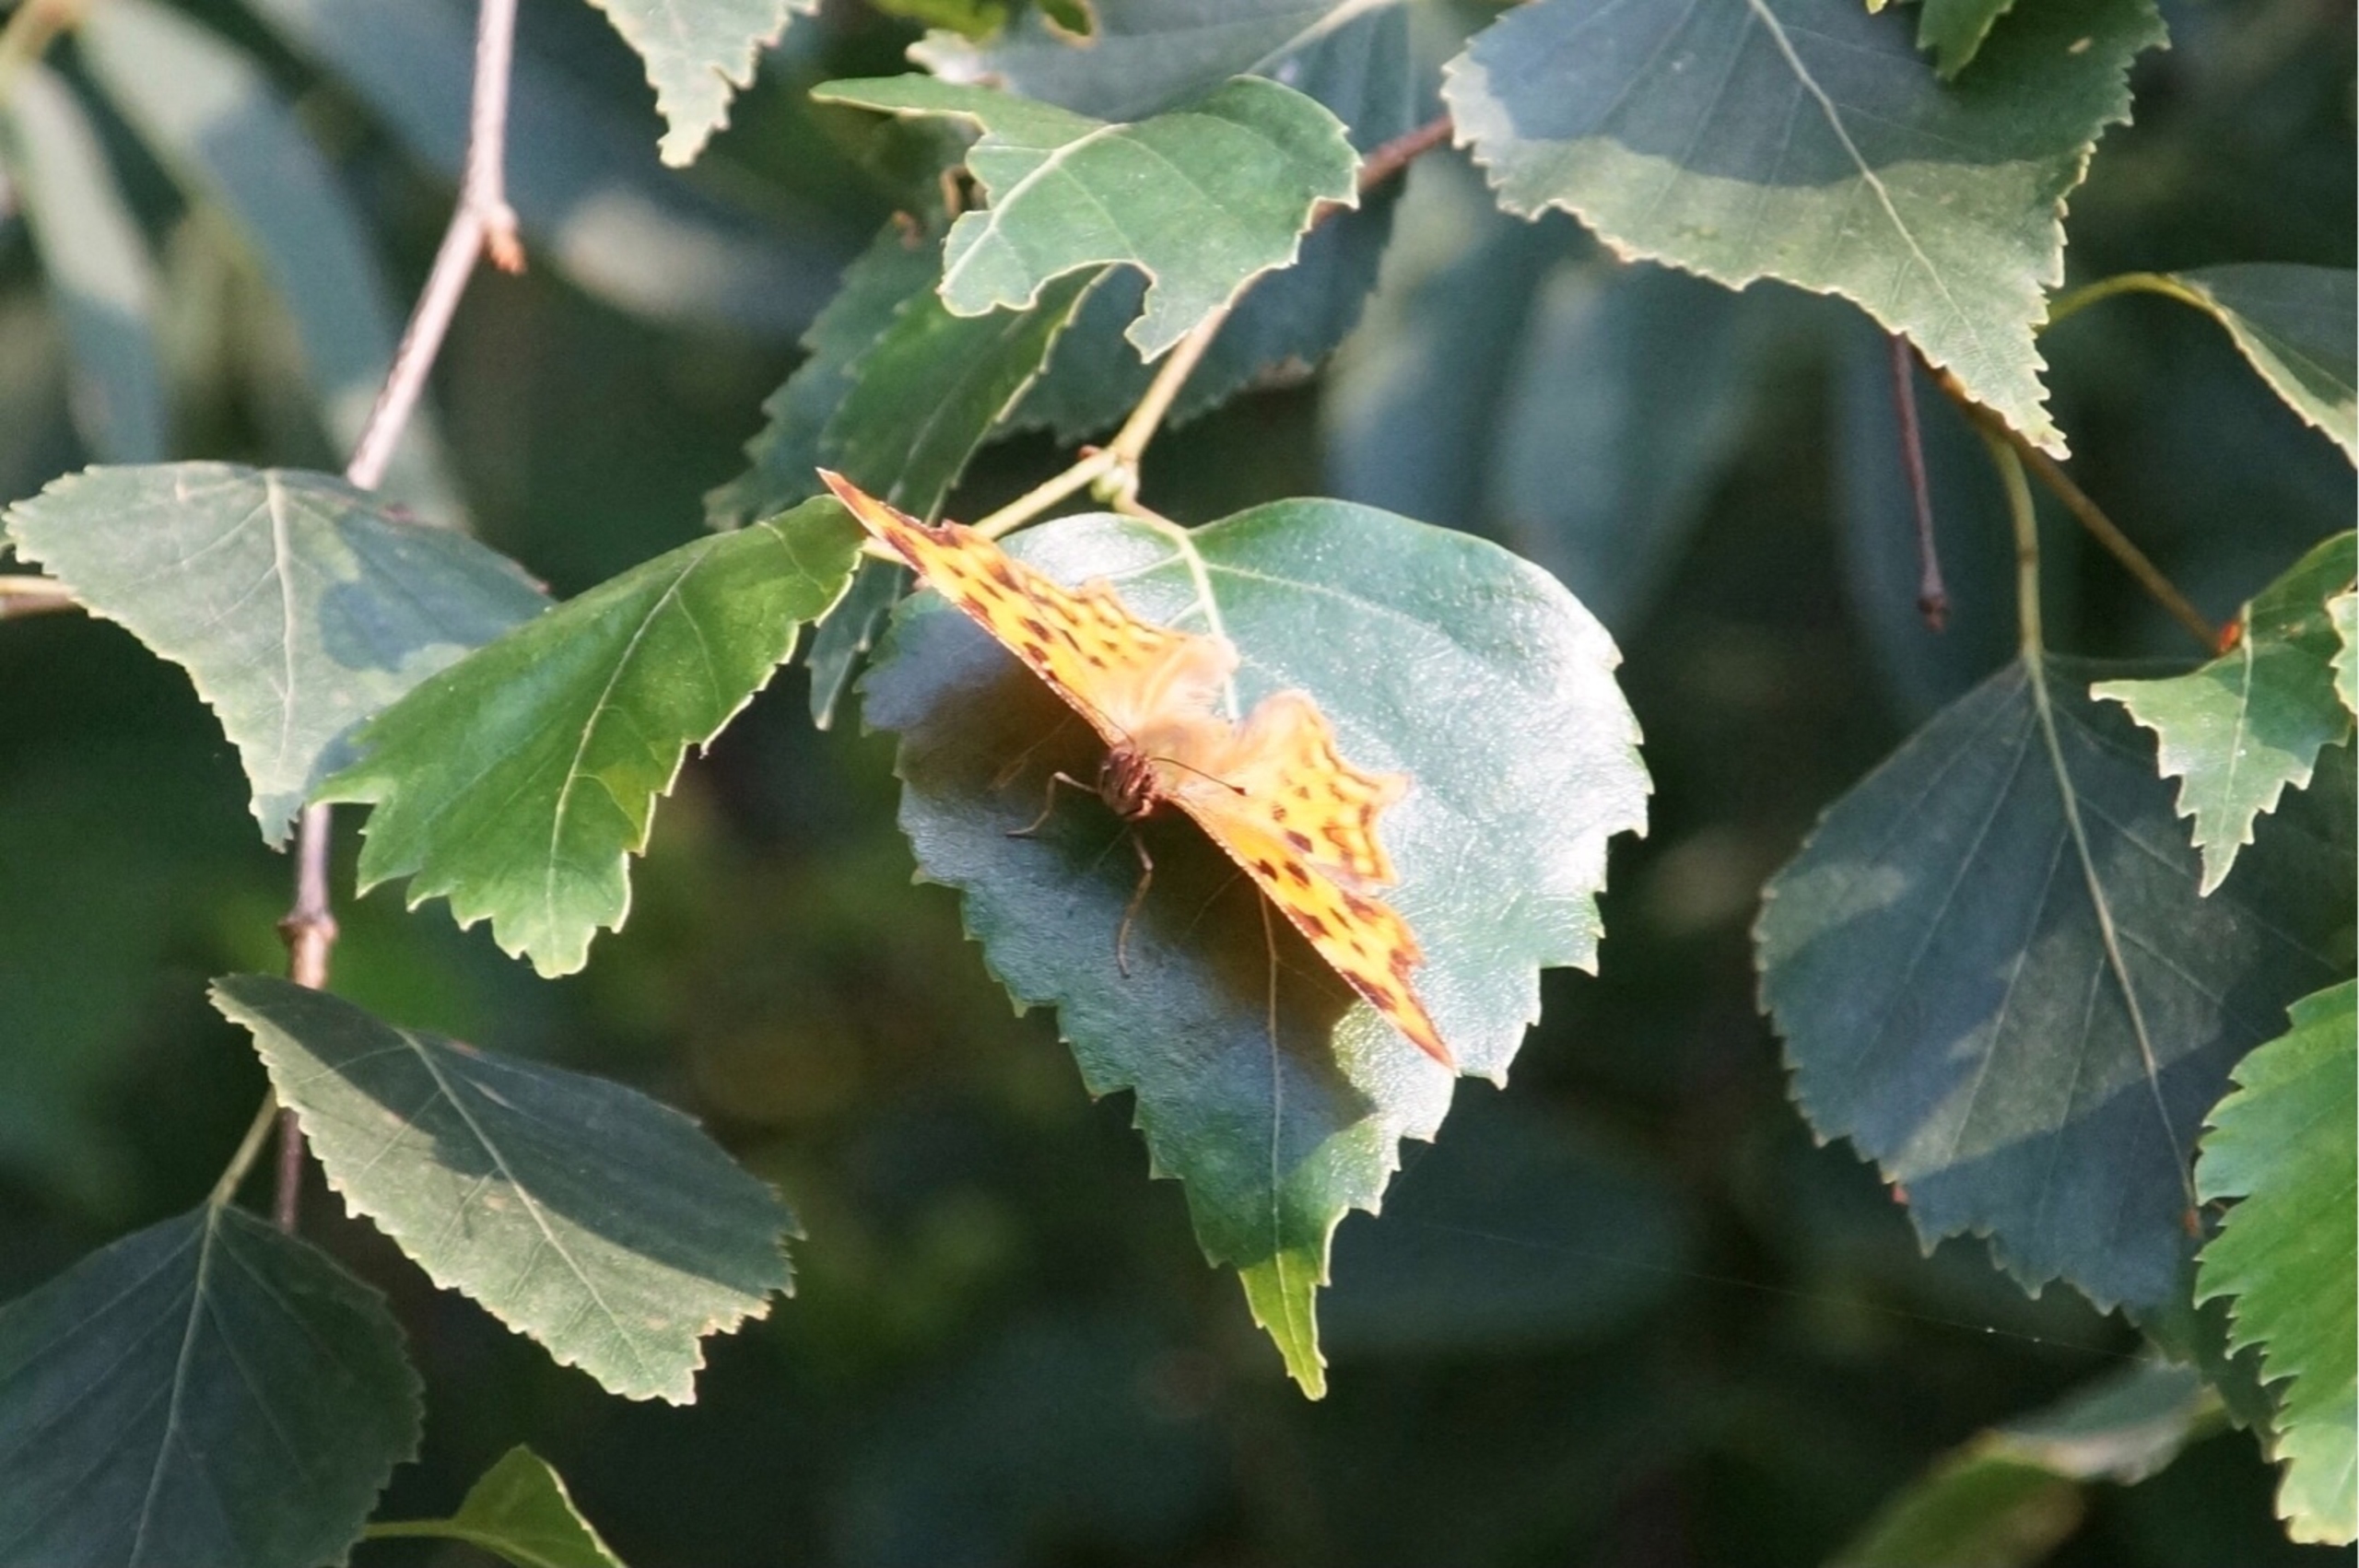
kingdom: Animalia
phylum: Arthropoda
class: Insecta
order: Lepidoptera
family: Nymphalidae
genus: Polygonia
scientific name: Polygonia c-album
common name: Det hvide C
